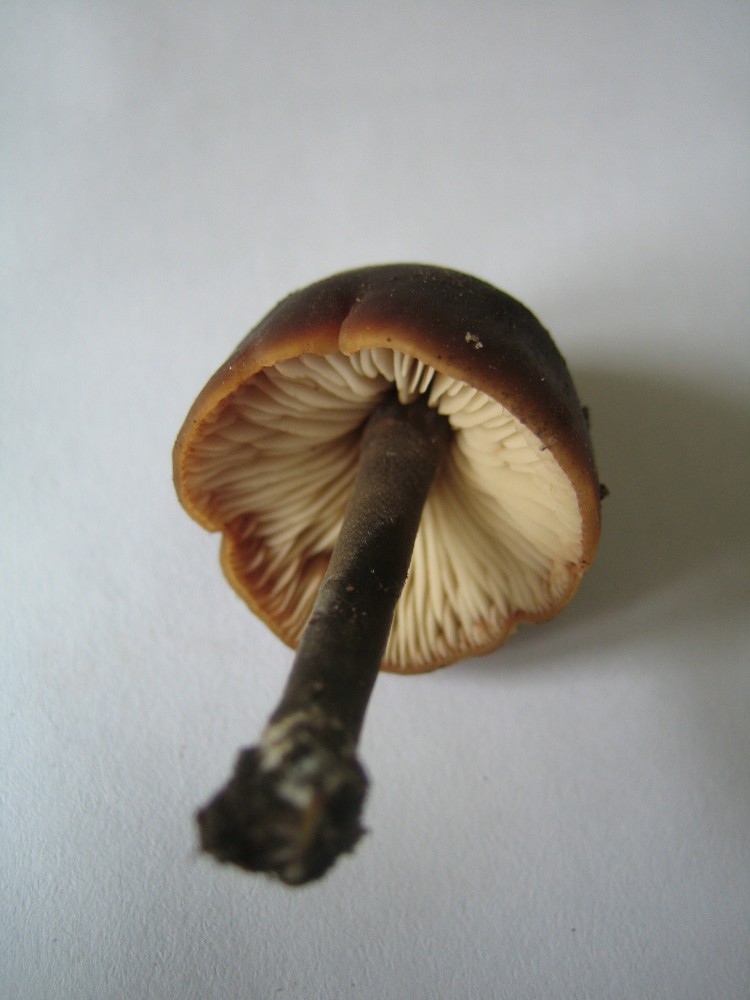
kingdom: Fungi
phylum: Basidiomycota
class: Agaricomycetes
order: Agaricales
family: Macrocystidiaceae
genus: Macrocystidia
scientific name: Macrocystidia
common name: agurkehat
